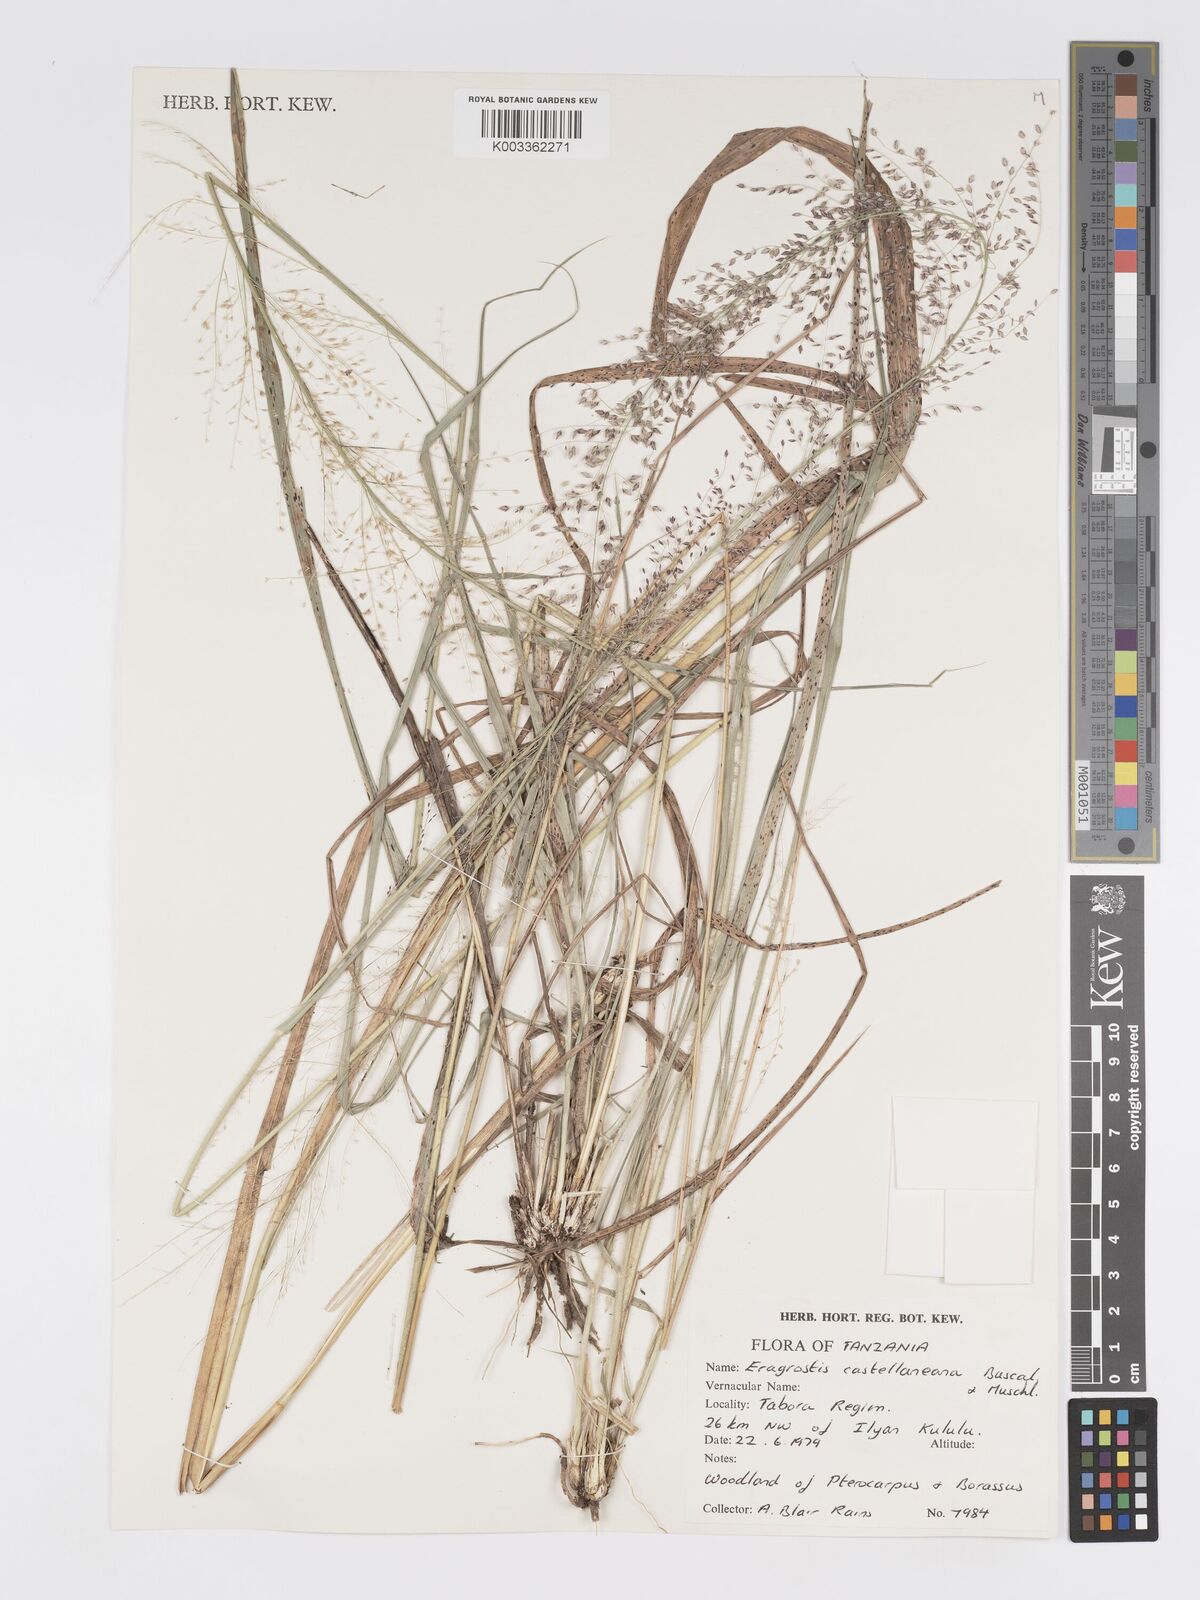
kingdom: Plantae
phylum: Tracheophyta
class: Liliopsida
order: Poales
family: Poaceae
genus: Eragrostis
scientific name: Eragrostis castellaneana
